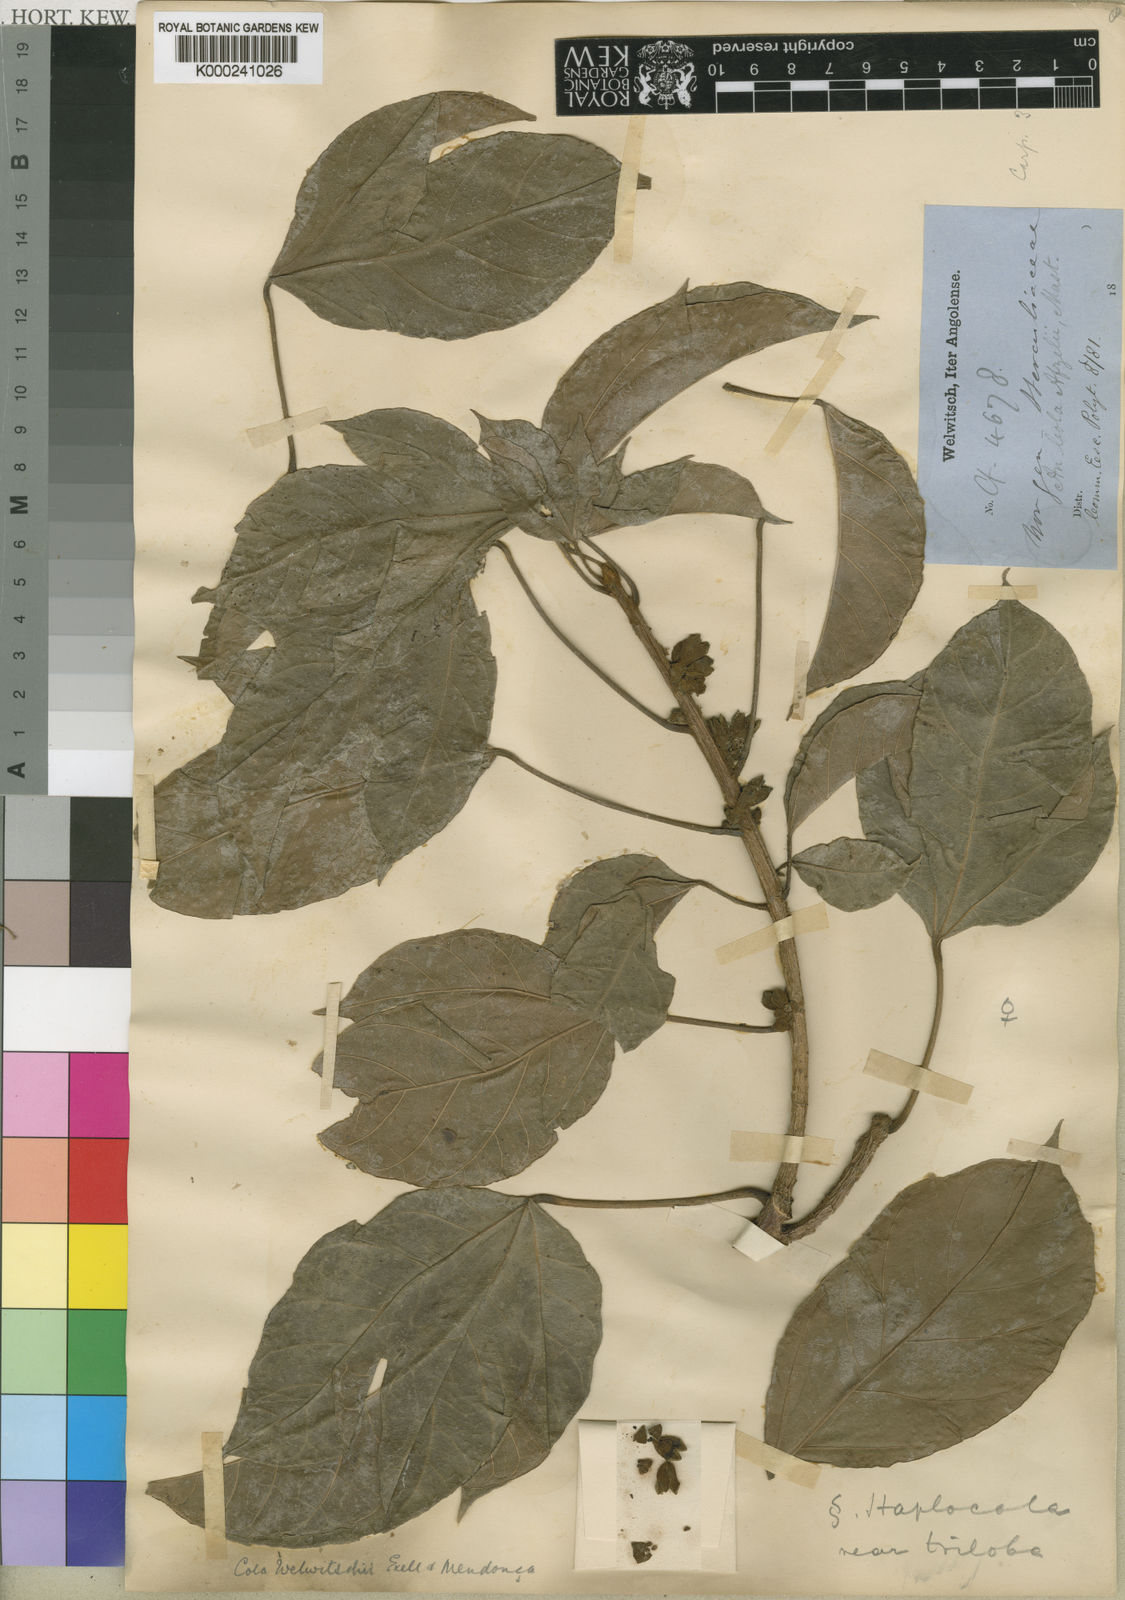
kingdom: Plantae
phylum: Tracheophyta
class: Magnoliopsida
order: Malvales
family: Malvaceae
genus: Cola
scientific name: Cola
